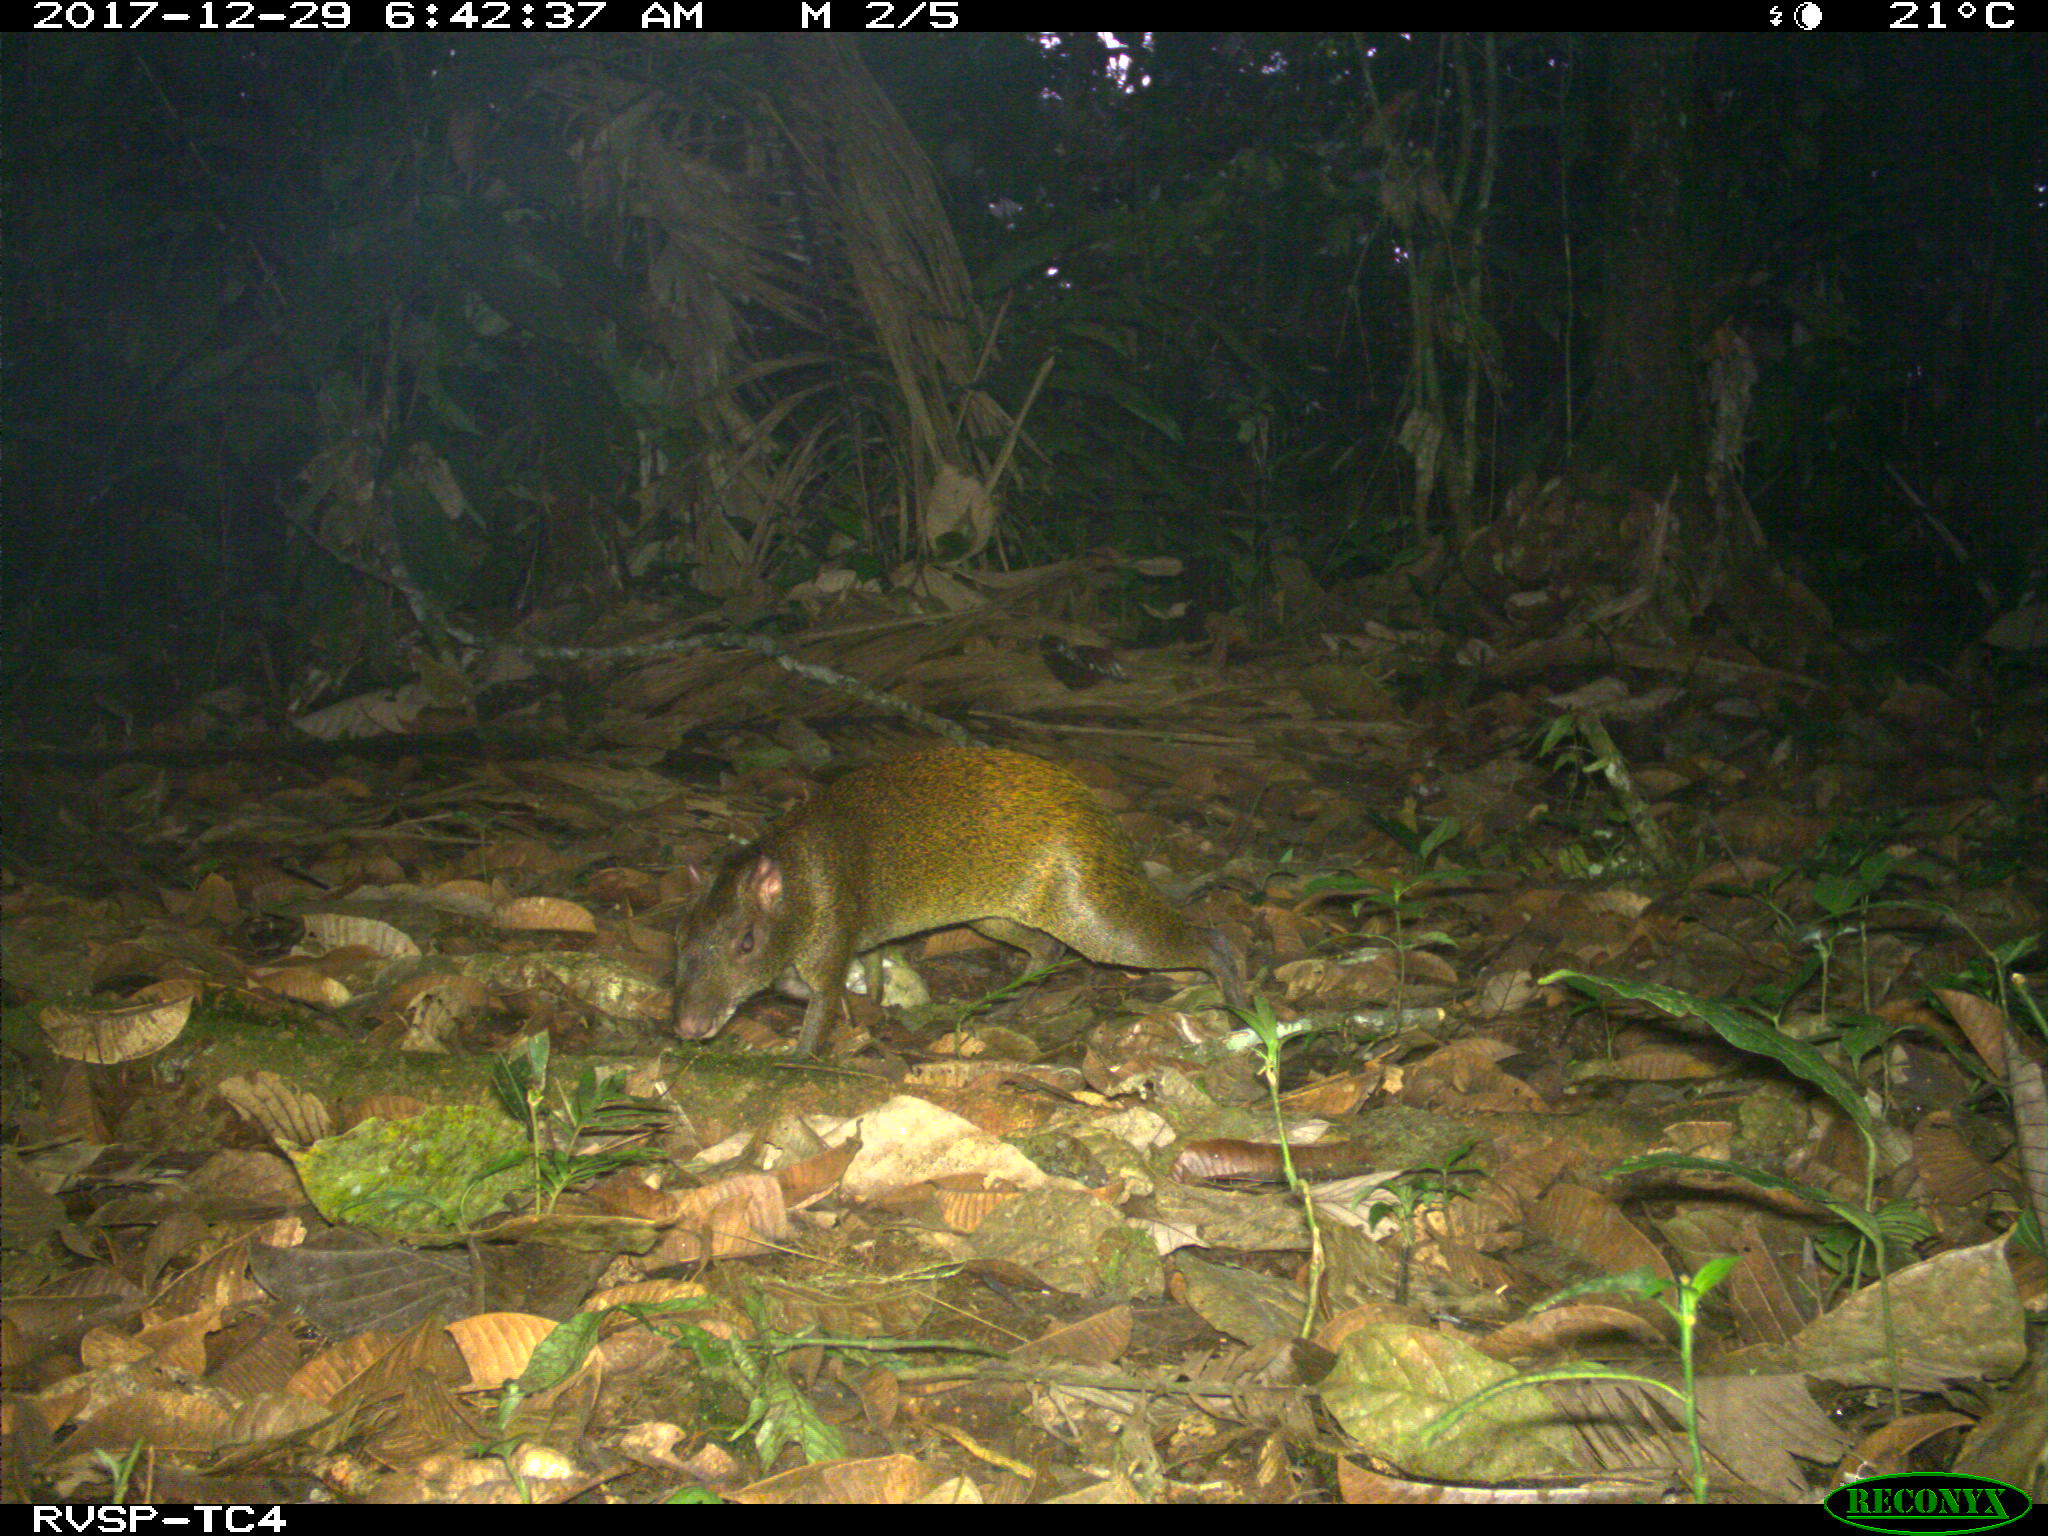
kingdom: Animalia
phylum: Chordata
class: Mammalia
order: Rodentia
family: Dasyproctidae
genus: Dasyprocta
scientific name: Dasyprocta punctata
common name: Central american agouti
